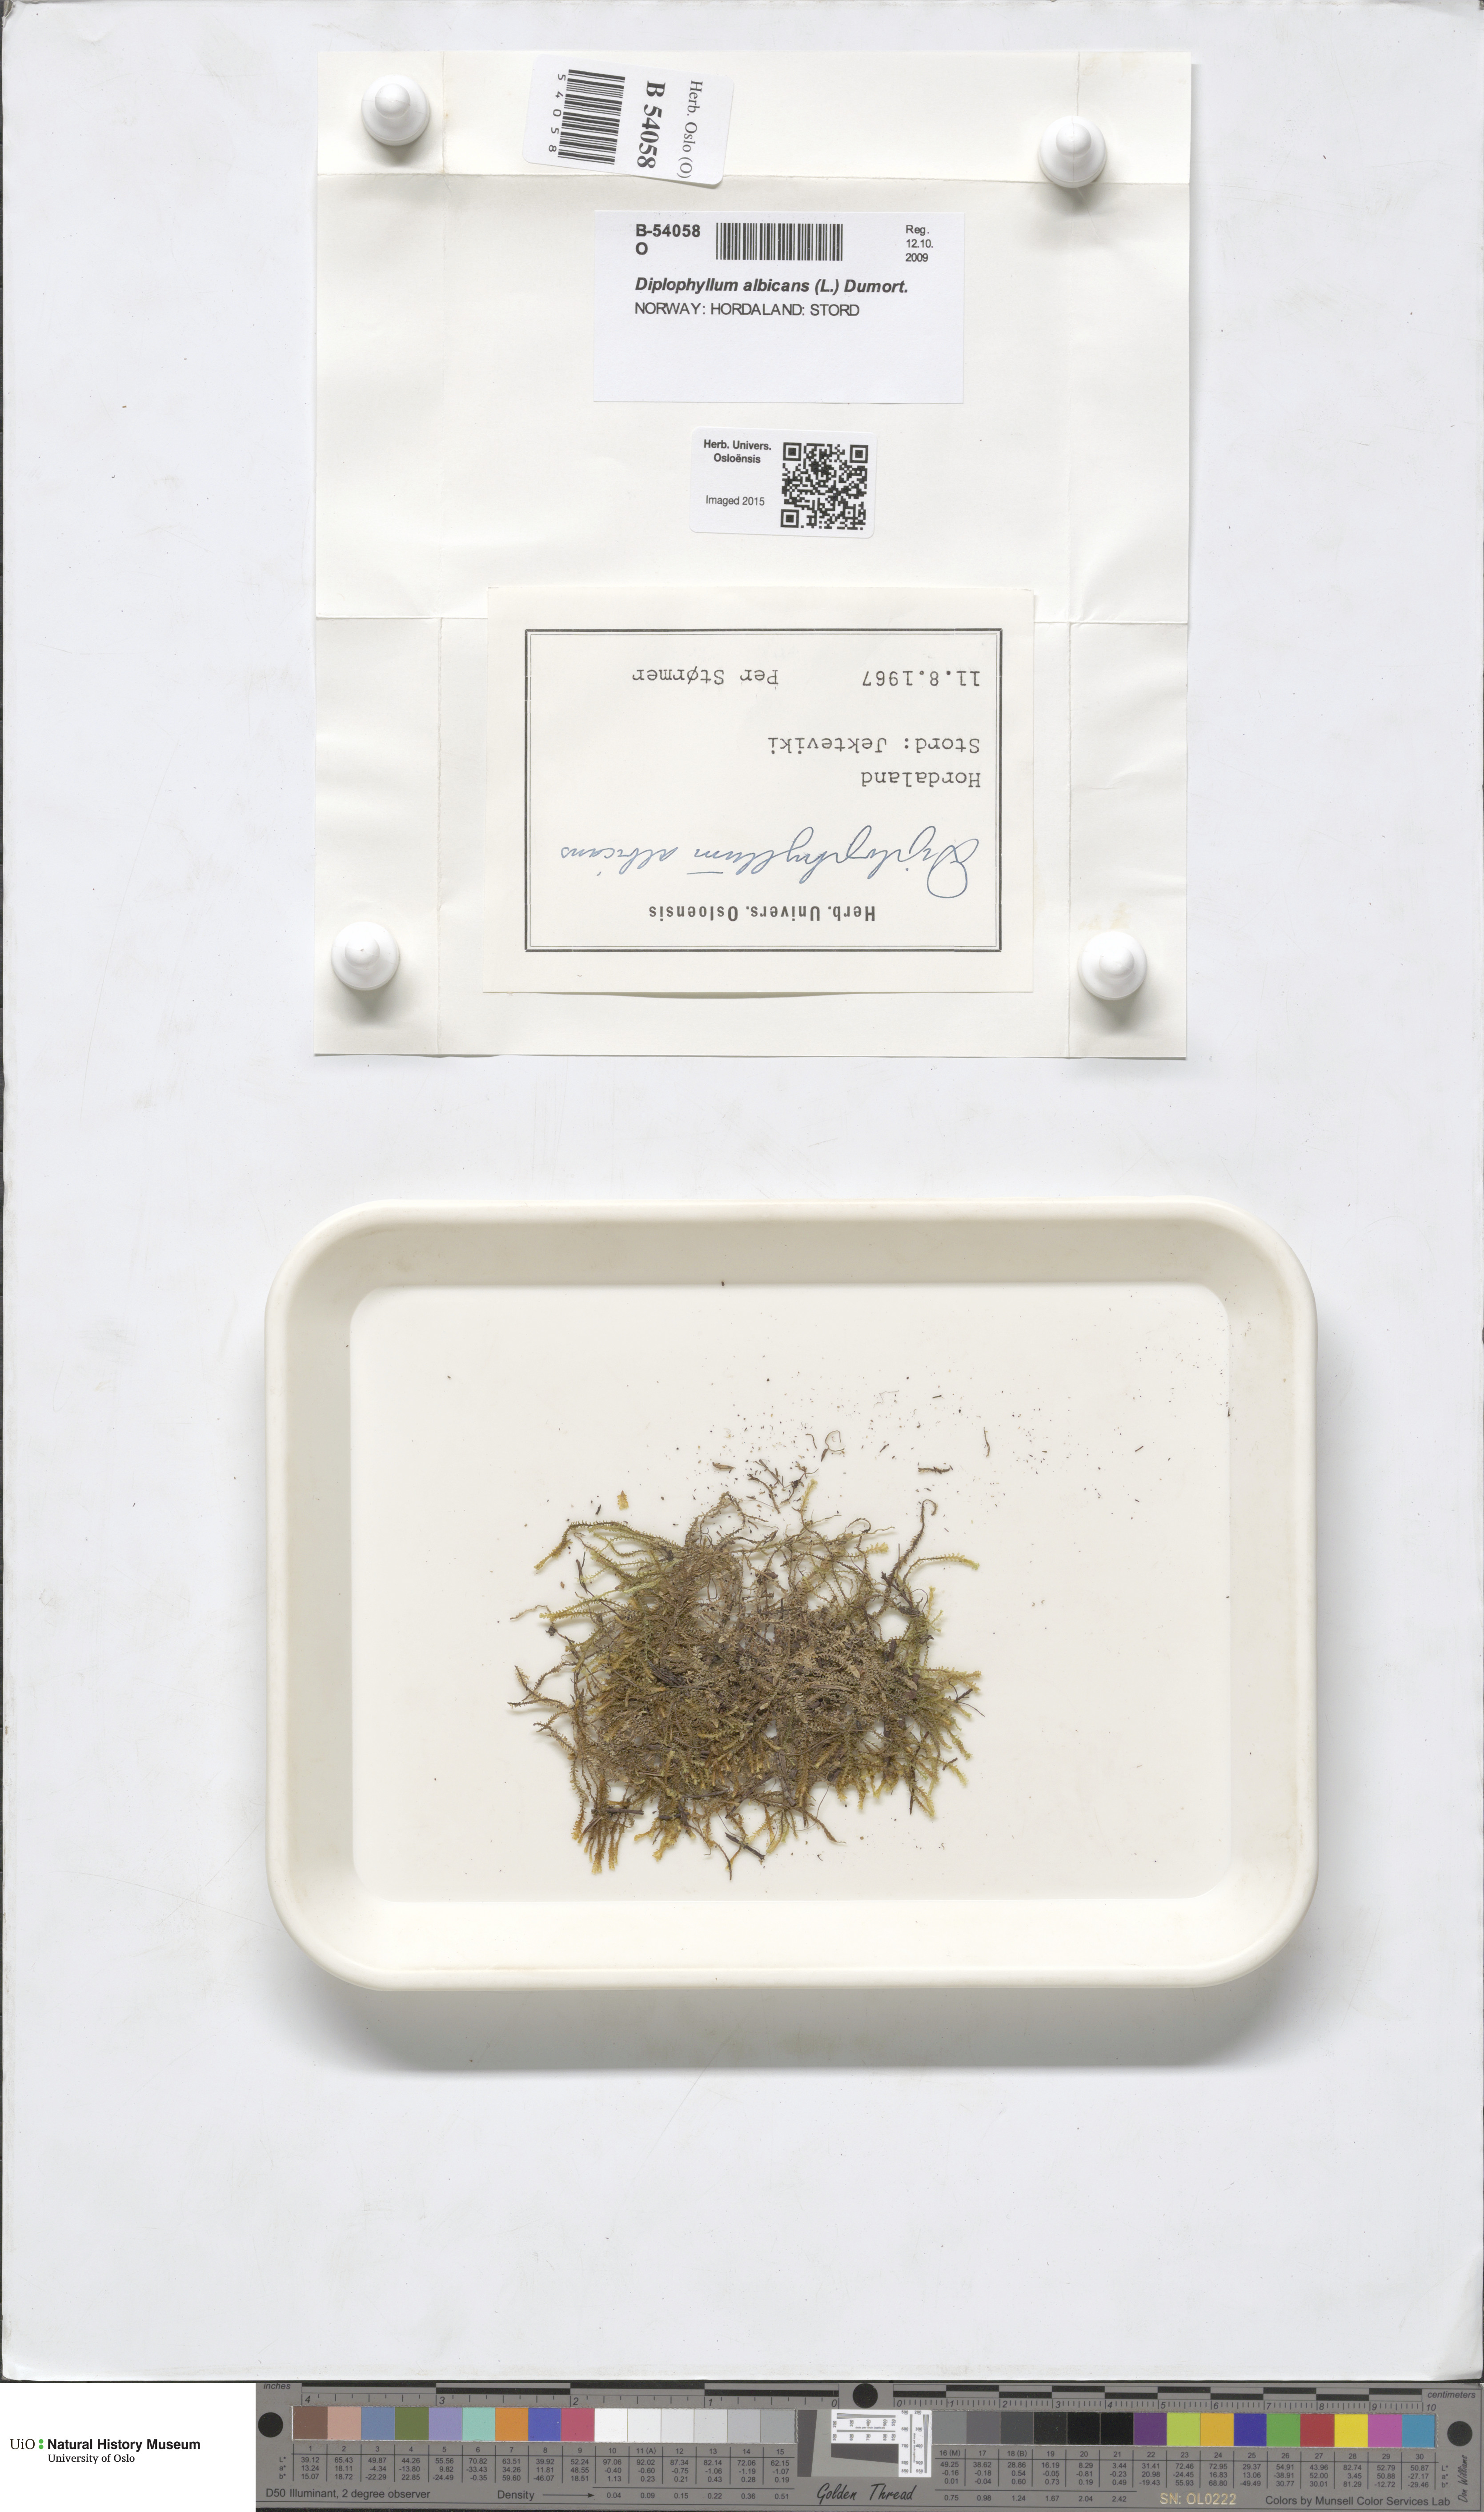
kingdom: Plantae
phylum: Marchantiophyta
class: Jungermanniopsida
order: Jungermanniales
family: Scapaniaceae
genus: Diplophyllum
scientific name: Diplophyllum albicans
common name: White earwort
